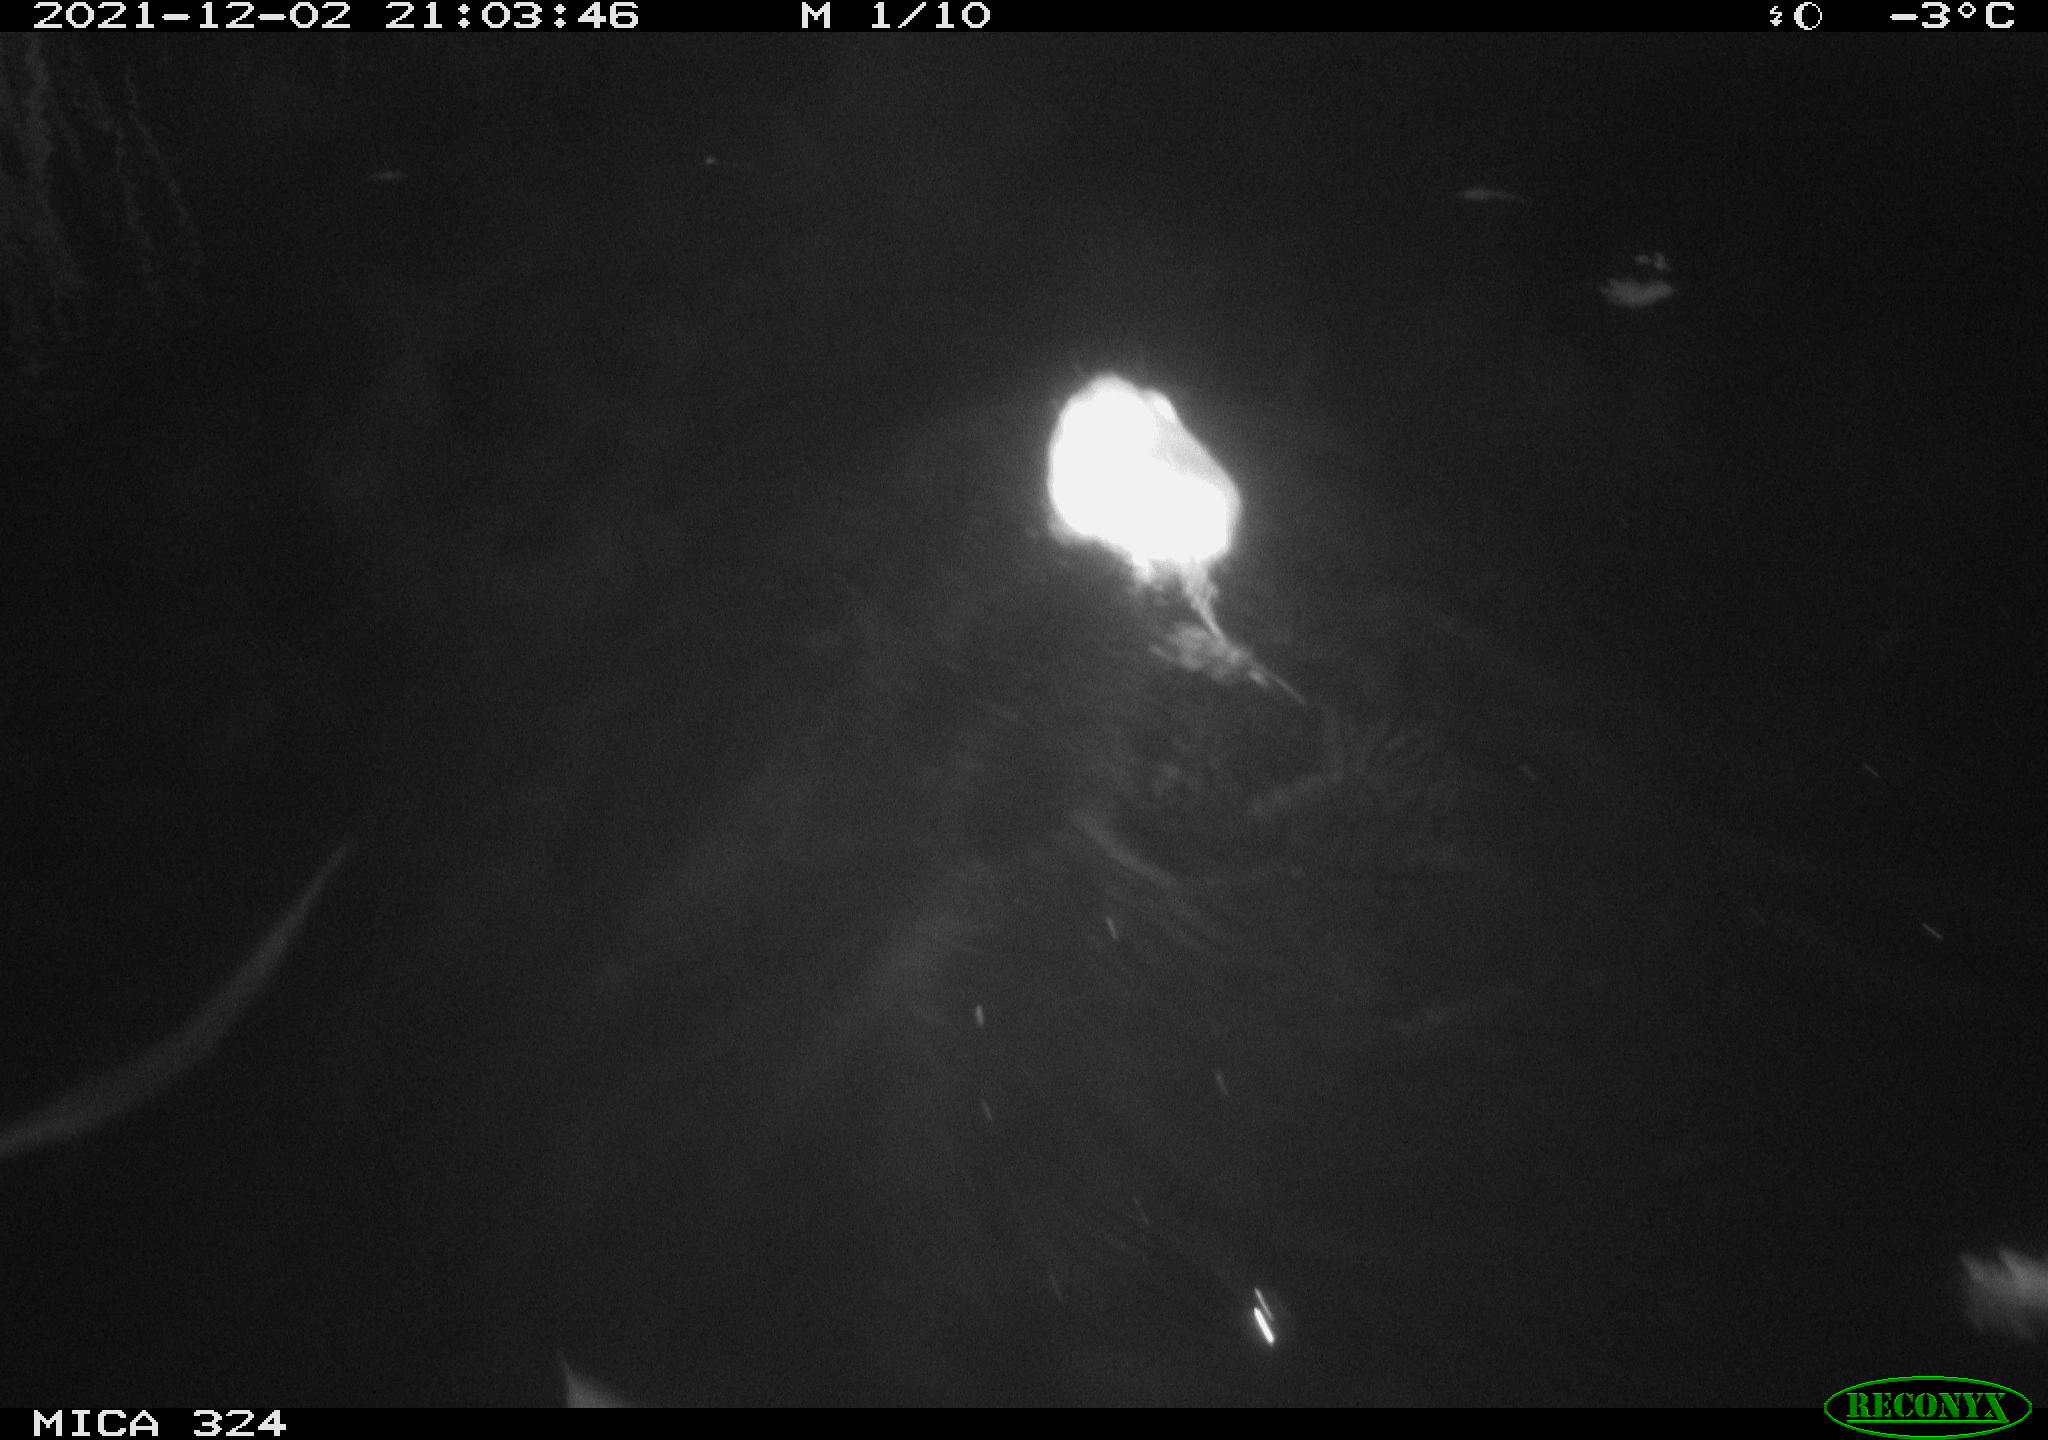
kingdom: Animalia
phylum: Chordata
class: Mammalia
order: Rodentia
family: Cricetidae
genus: Ondatra
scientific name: Ondatra zibethicus
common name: Muskrat
